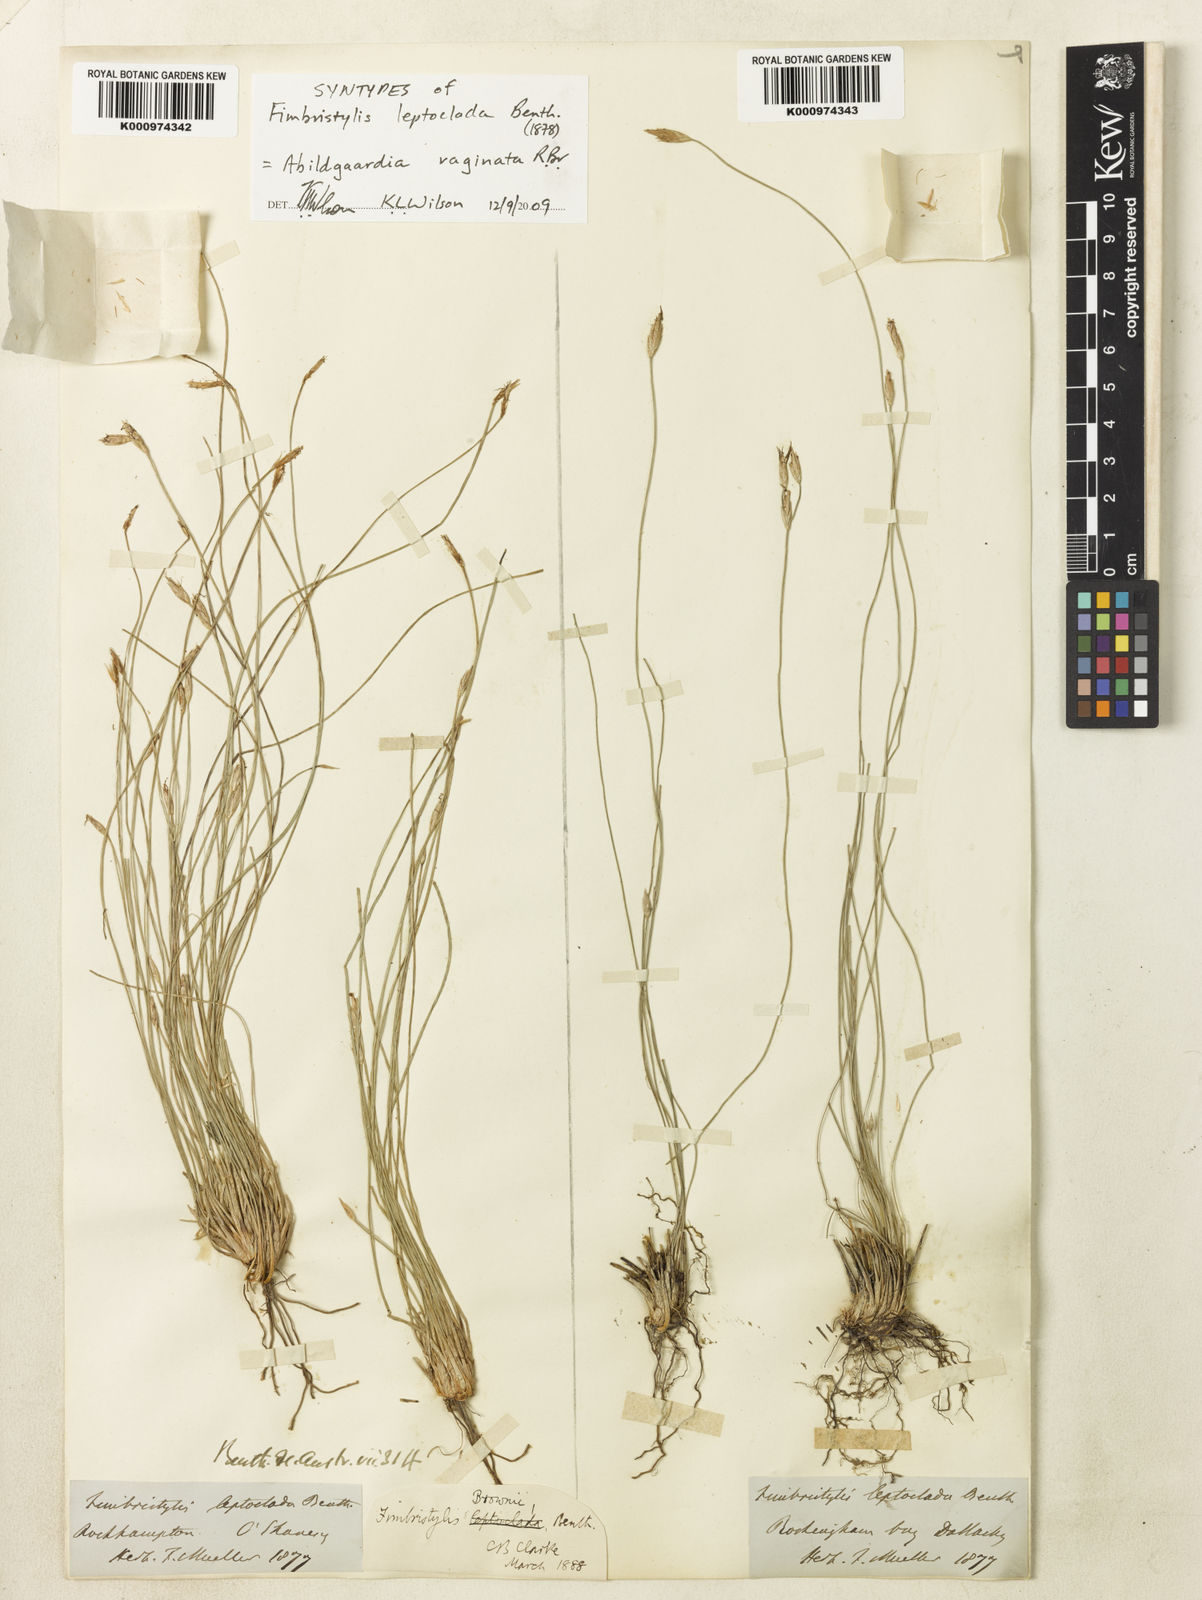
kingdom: Plantae
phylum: Tracheophyta
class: Liliopsida
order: Poales
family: Cyperaceae
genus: Fimbristylis
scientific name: Fimbristylis vaginata
